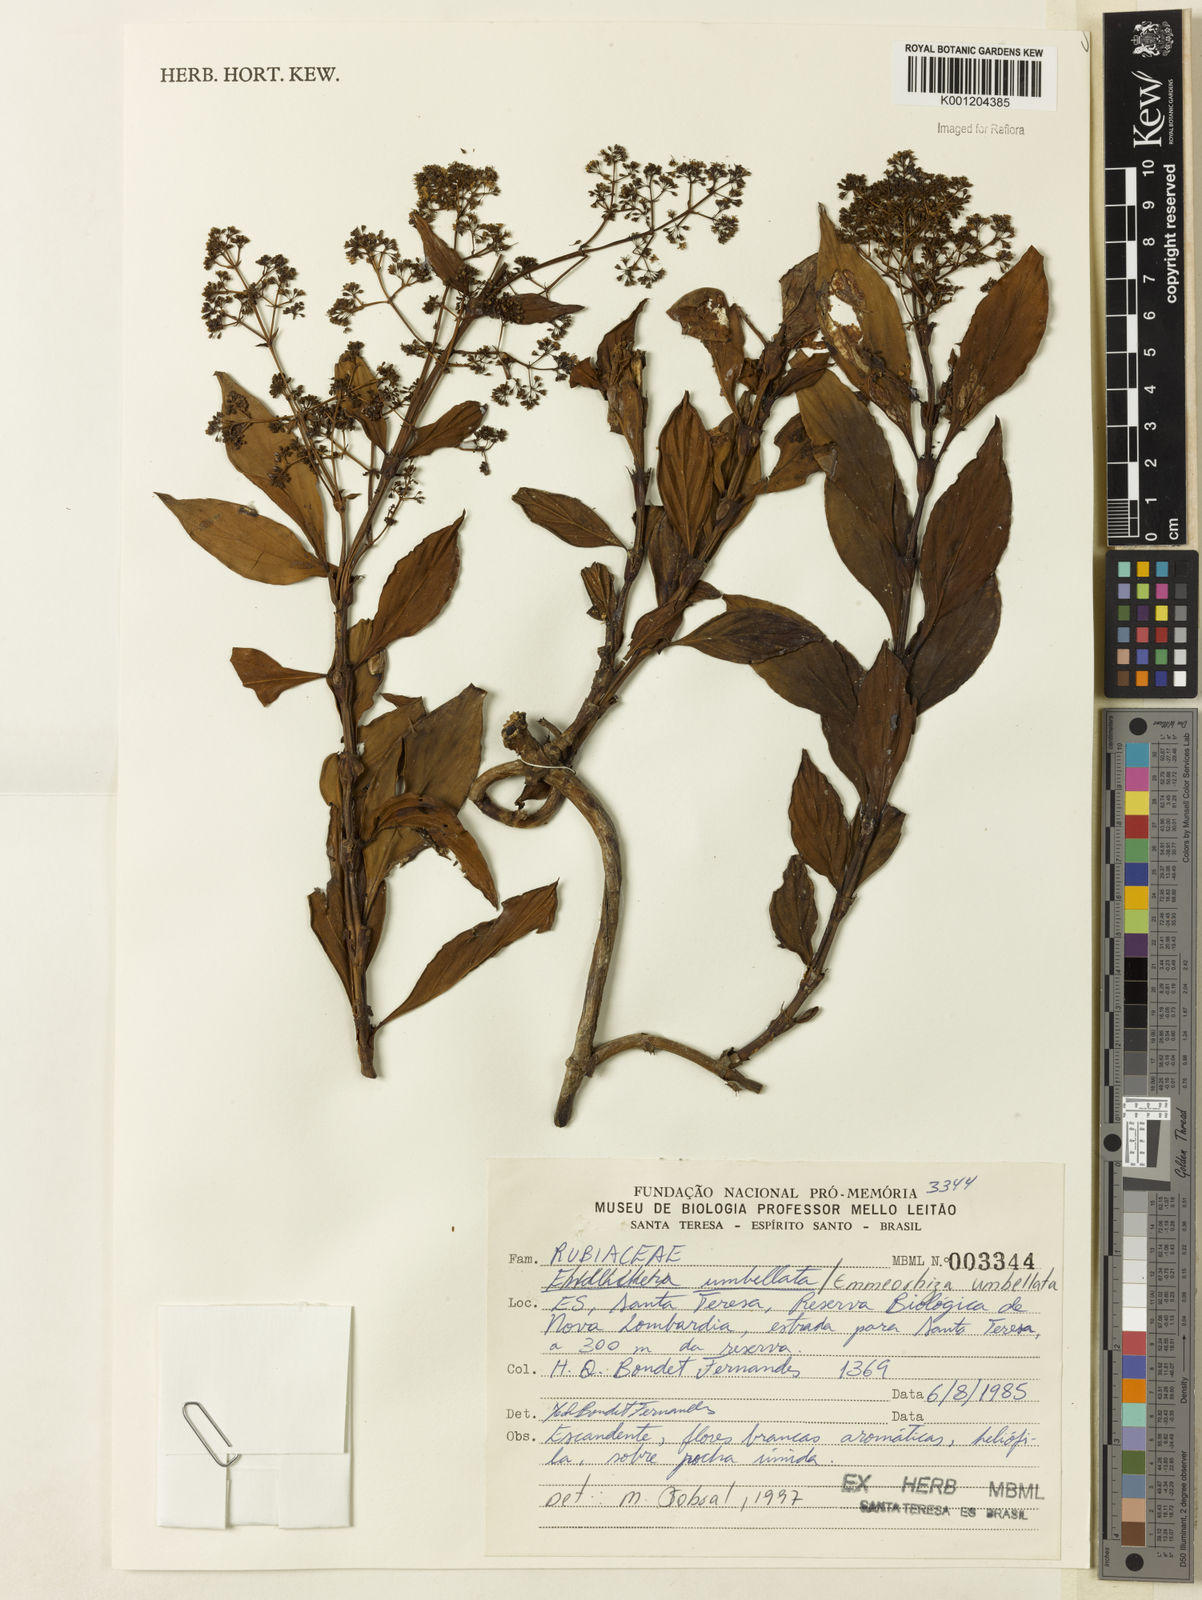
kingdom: Plantae
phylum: Tracheophyta
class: Magnoliopsida
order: Gentianales
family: Rubiaceae
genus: Emmeorhiza
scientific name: Emmeorhiza umbellata
